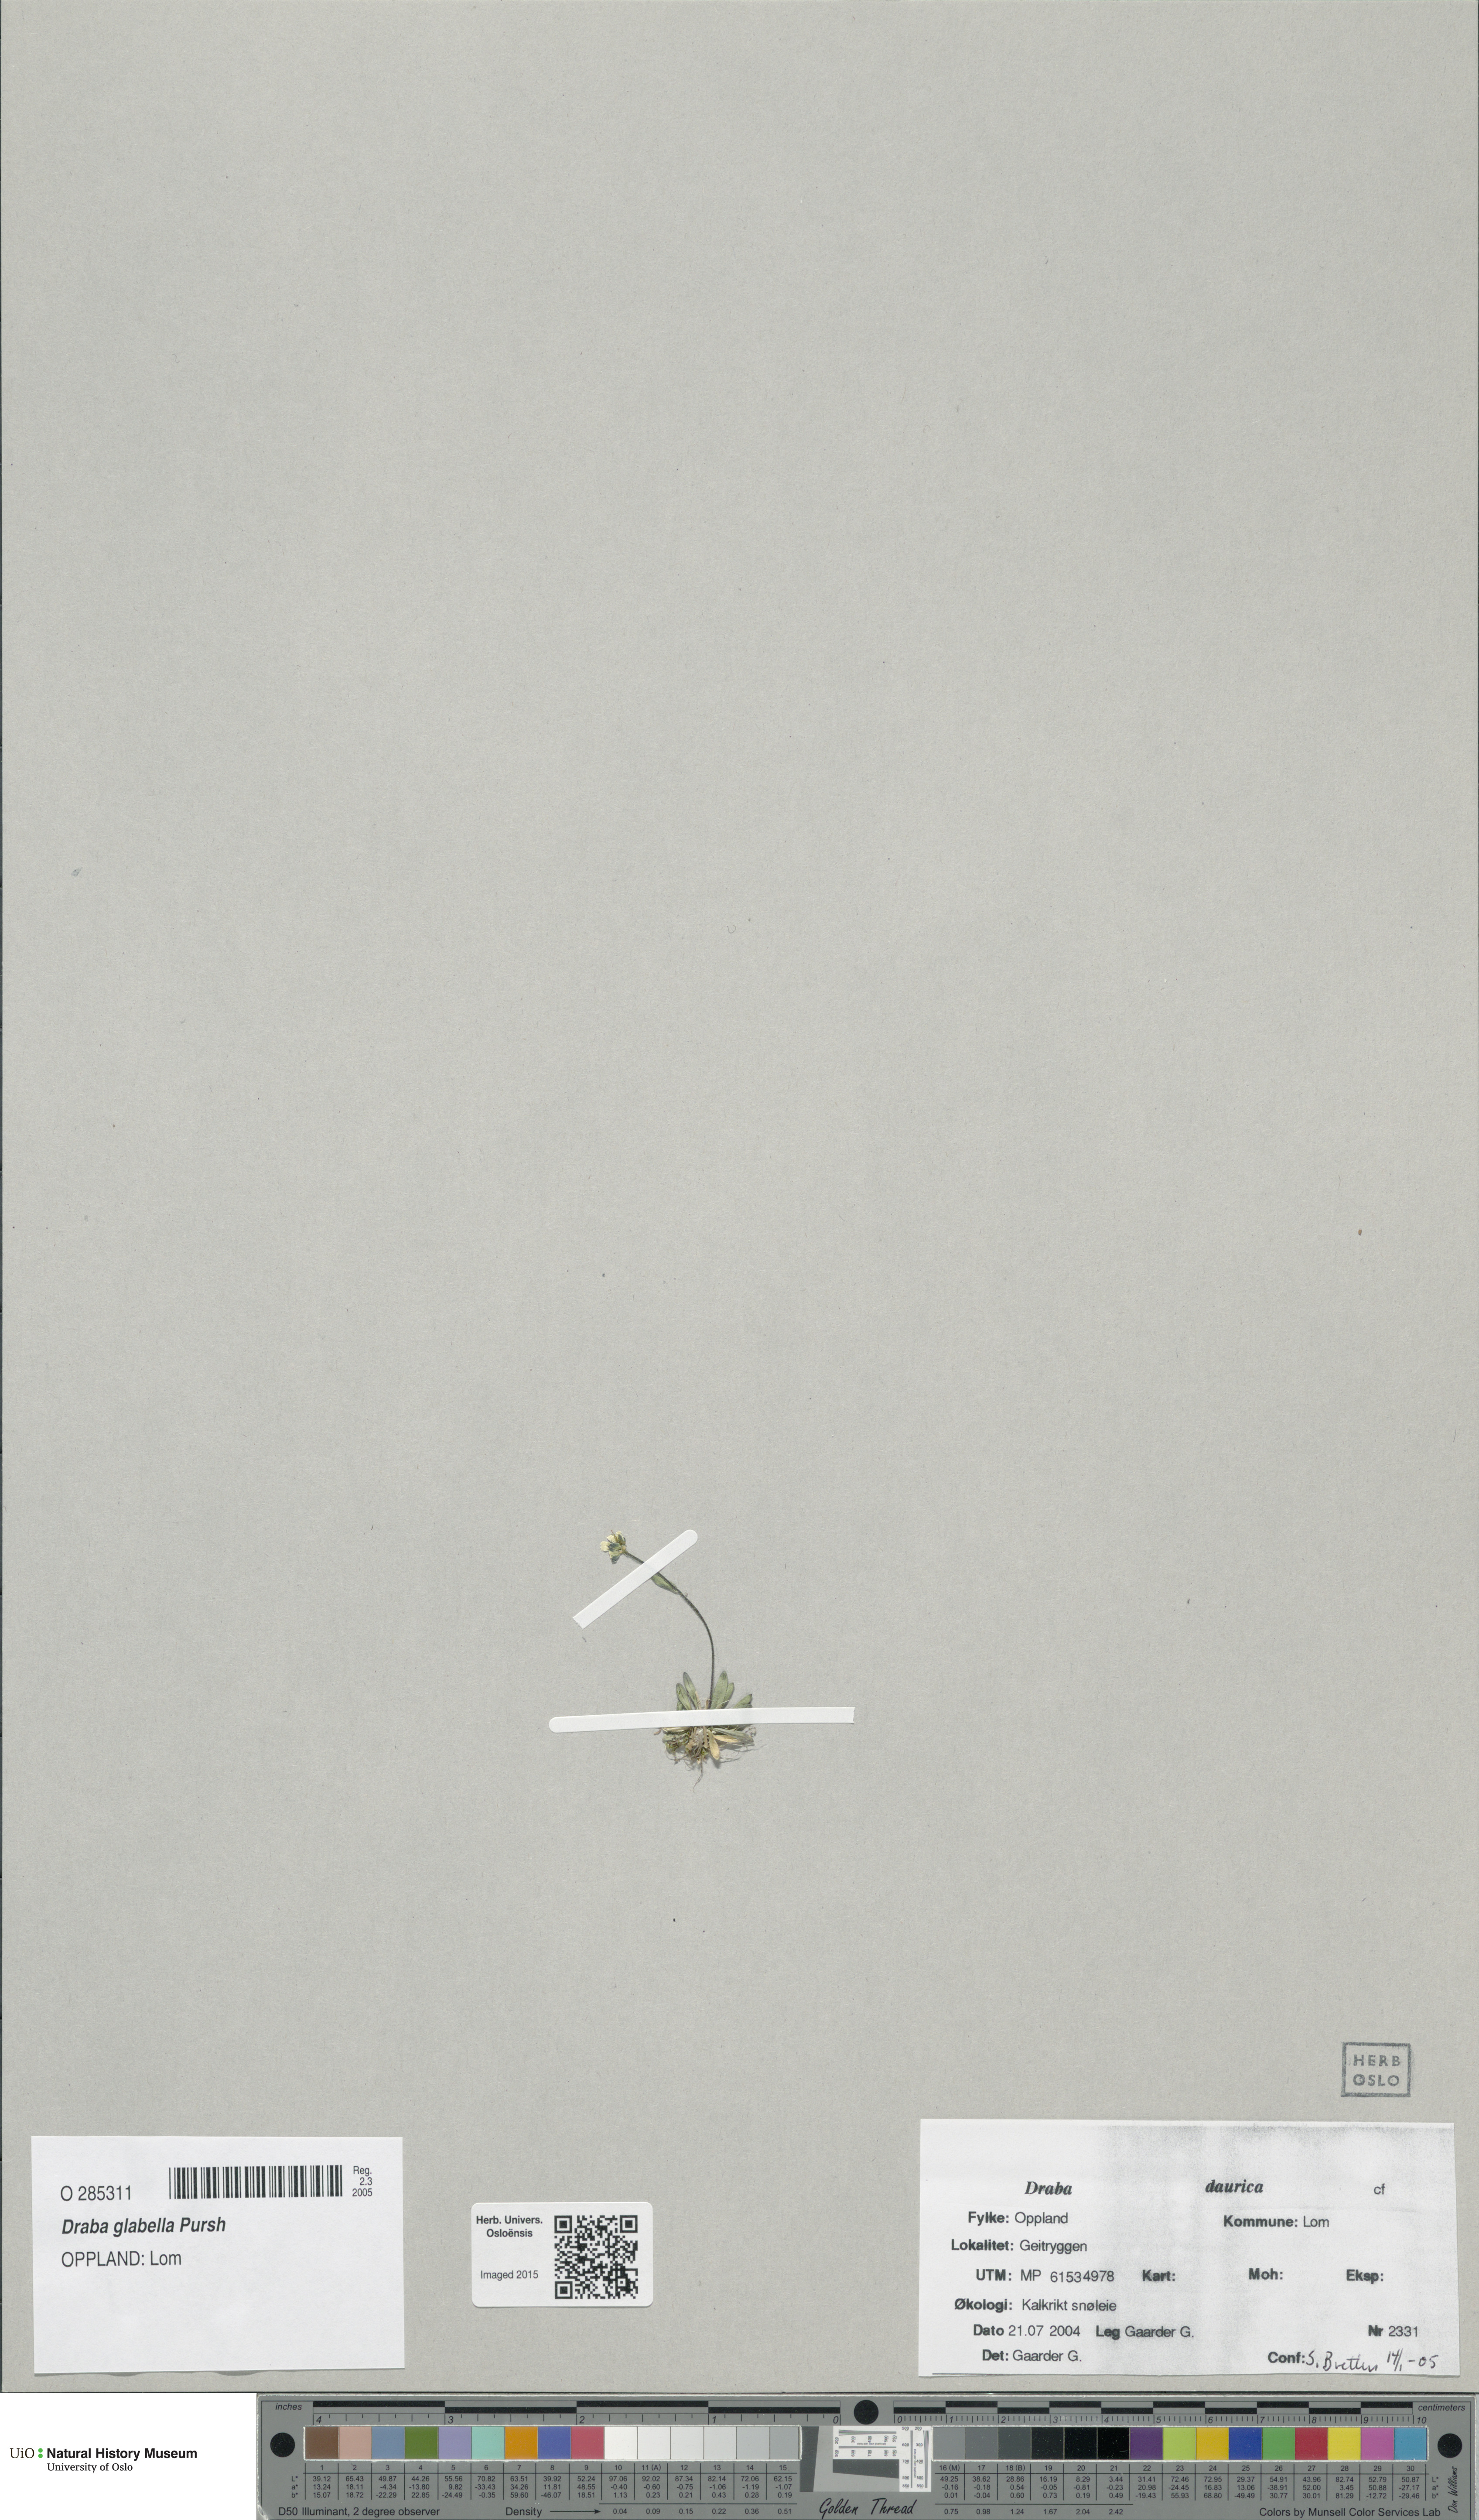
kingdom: Plantae
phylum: Tracheophyta
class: Magnoliopsida
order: Brassicales
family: Brassicaceae
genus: Draba
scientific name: Draba glabella
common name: Glaucous draba
